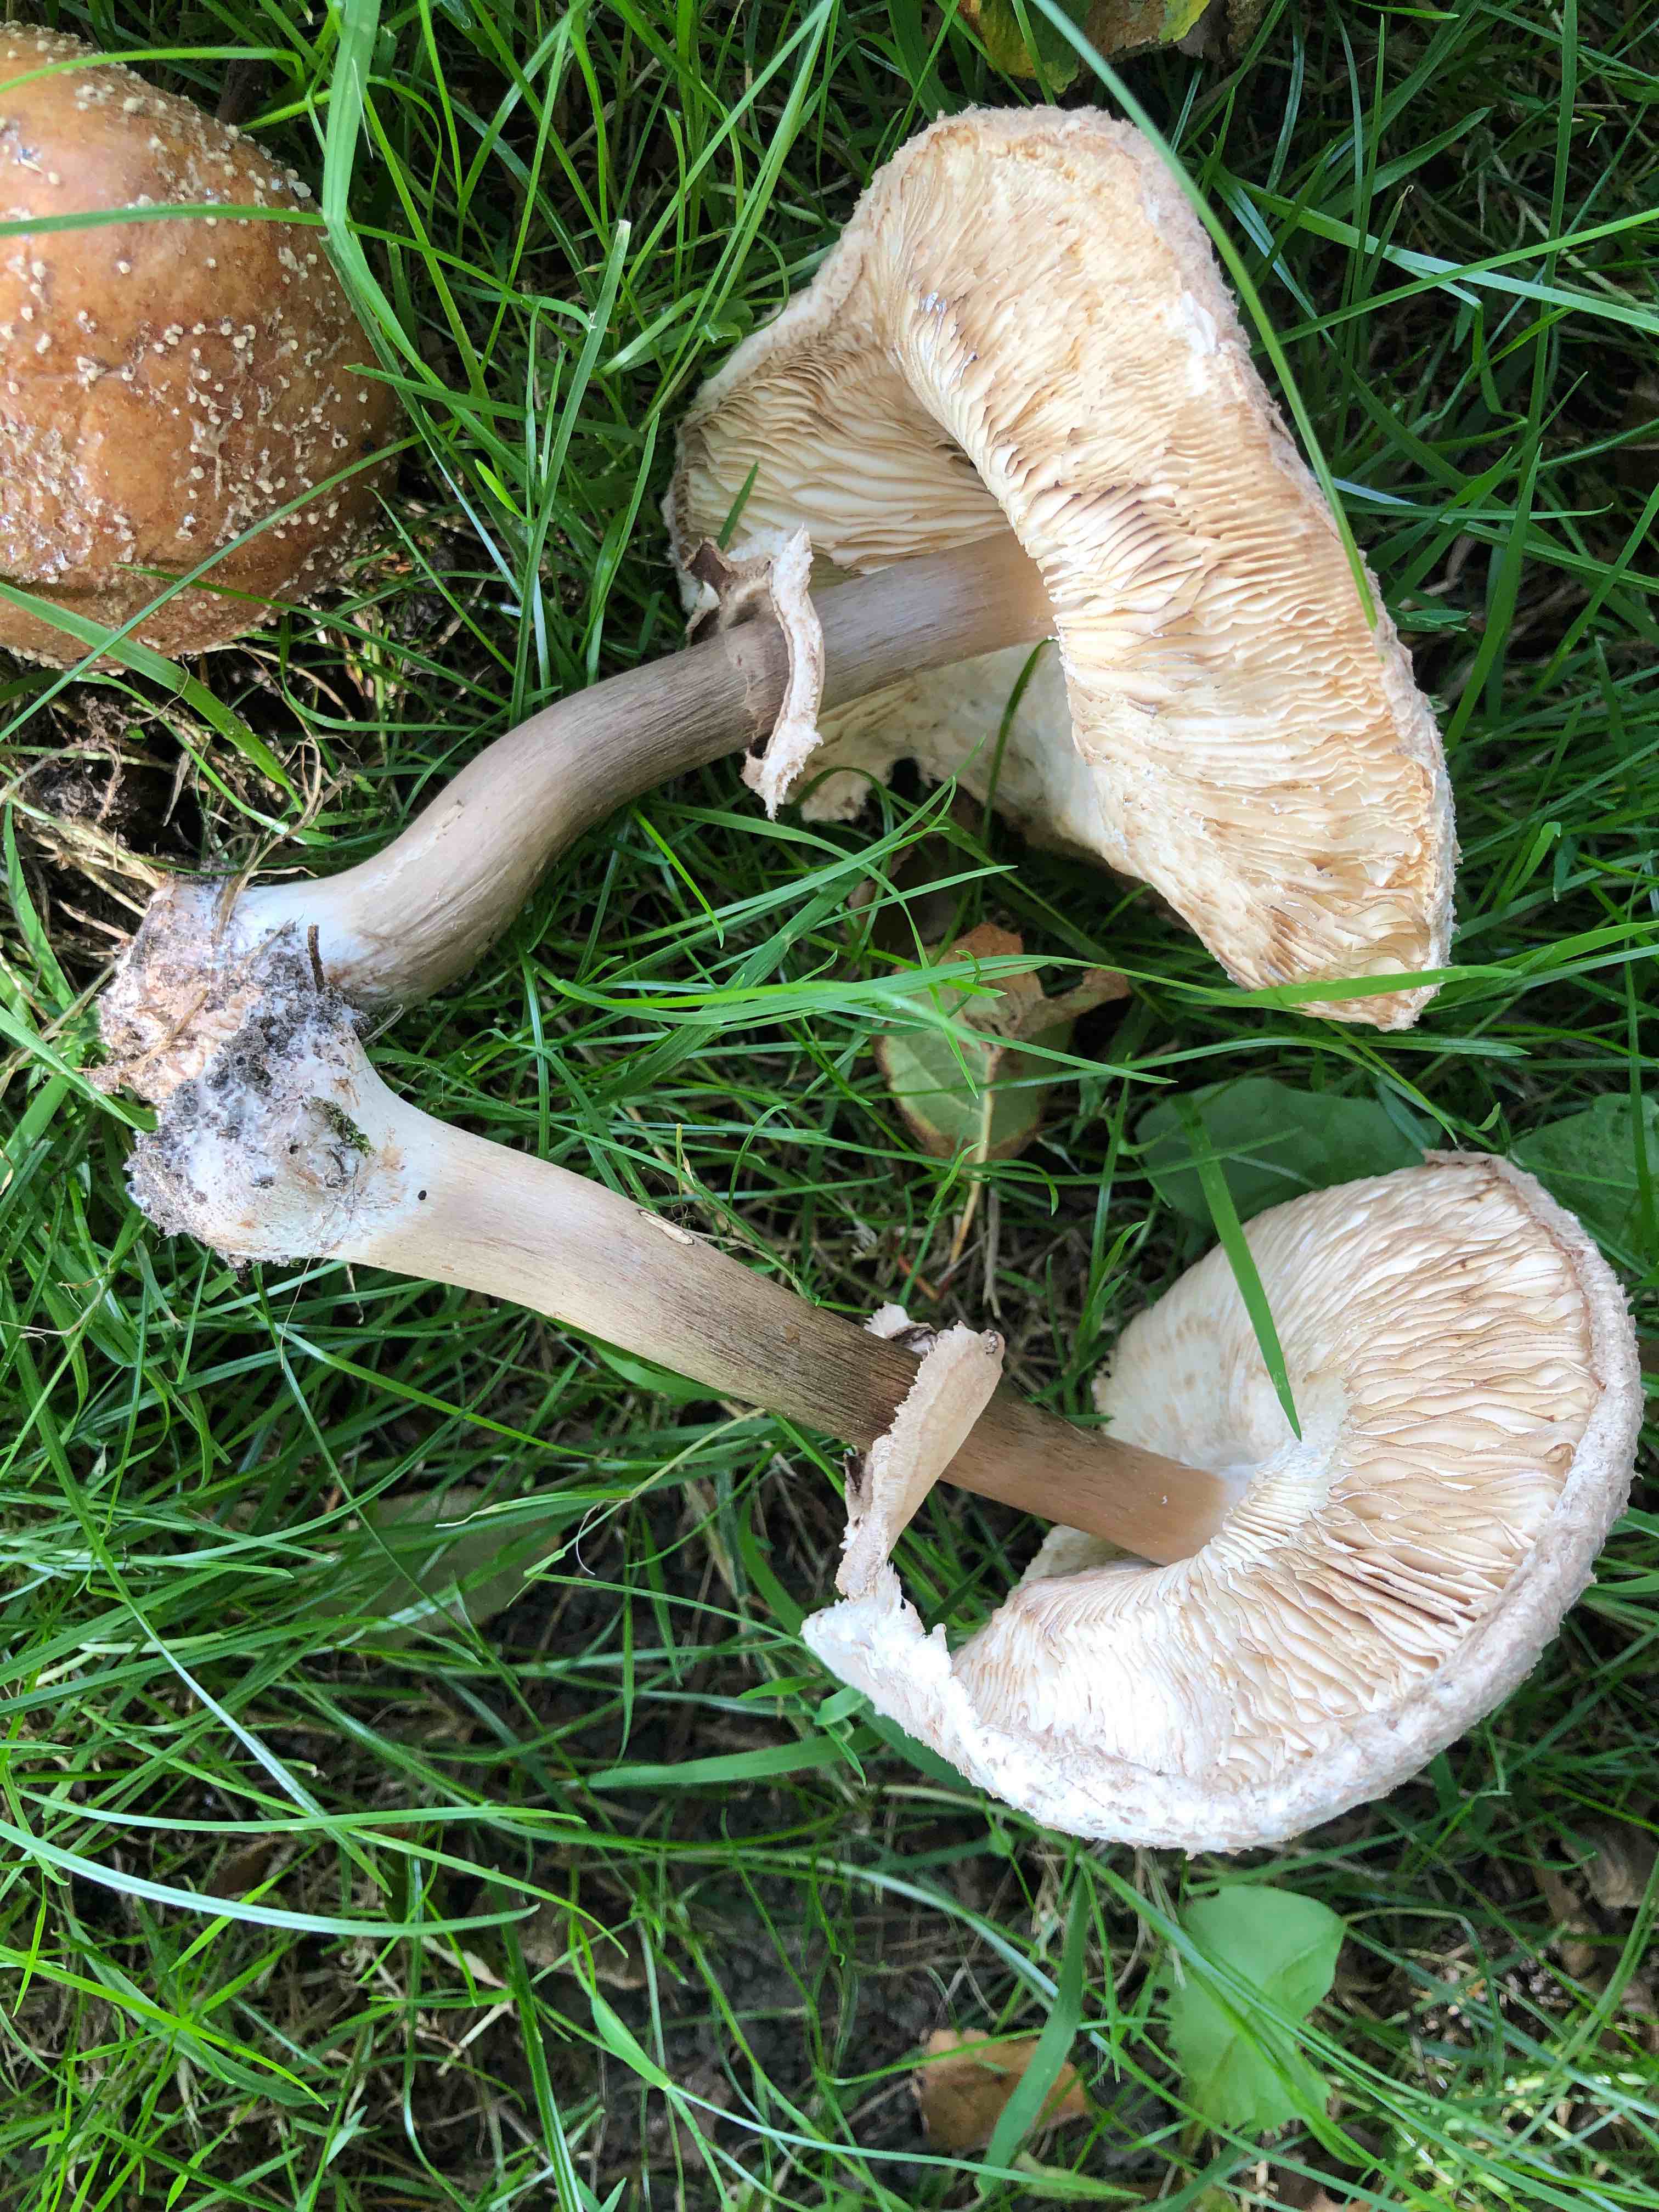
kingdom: Fungi
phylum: Basidiomycota
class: Agaricomycetes
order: Agaricales
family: Agaricaceae
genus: Chlorophyllum
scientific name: Chlorophyllum
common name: rabarberhat
